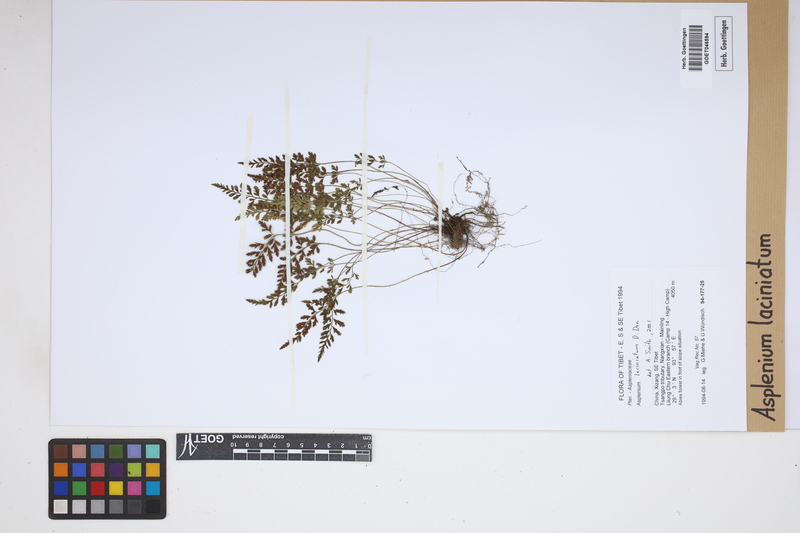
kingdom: Plantae
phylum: Tracheophyta
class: Polypodiopsida
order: Polypodiales
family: Aspleniaceae
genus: Asplenium
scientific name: Asplenium laciniatum
